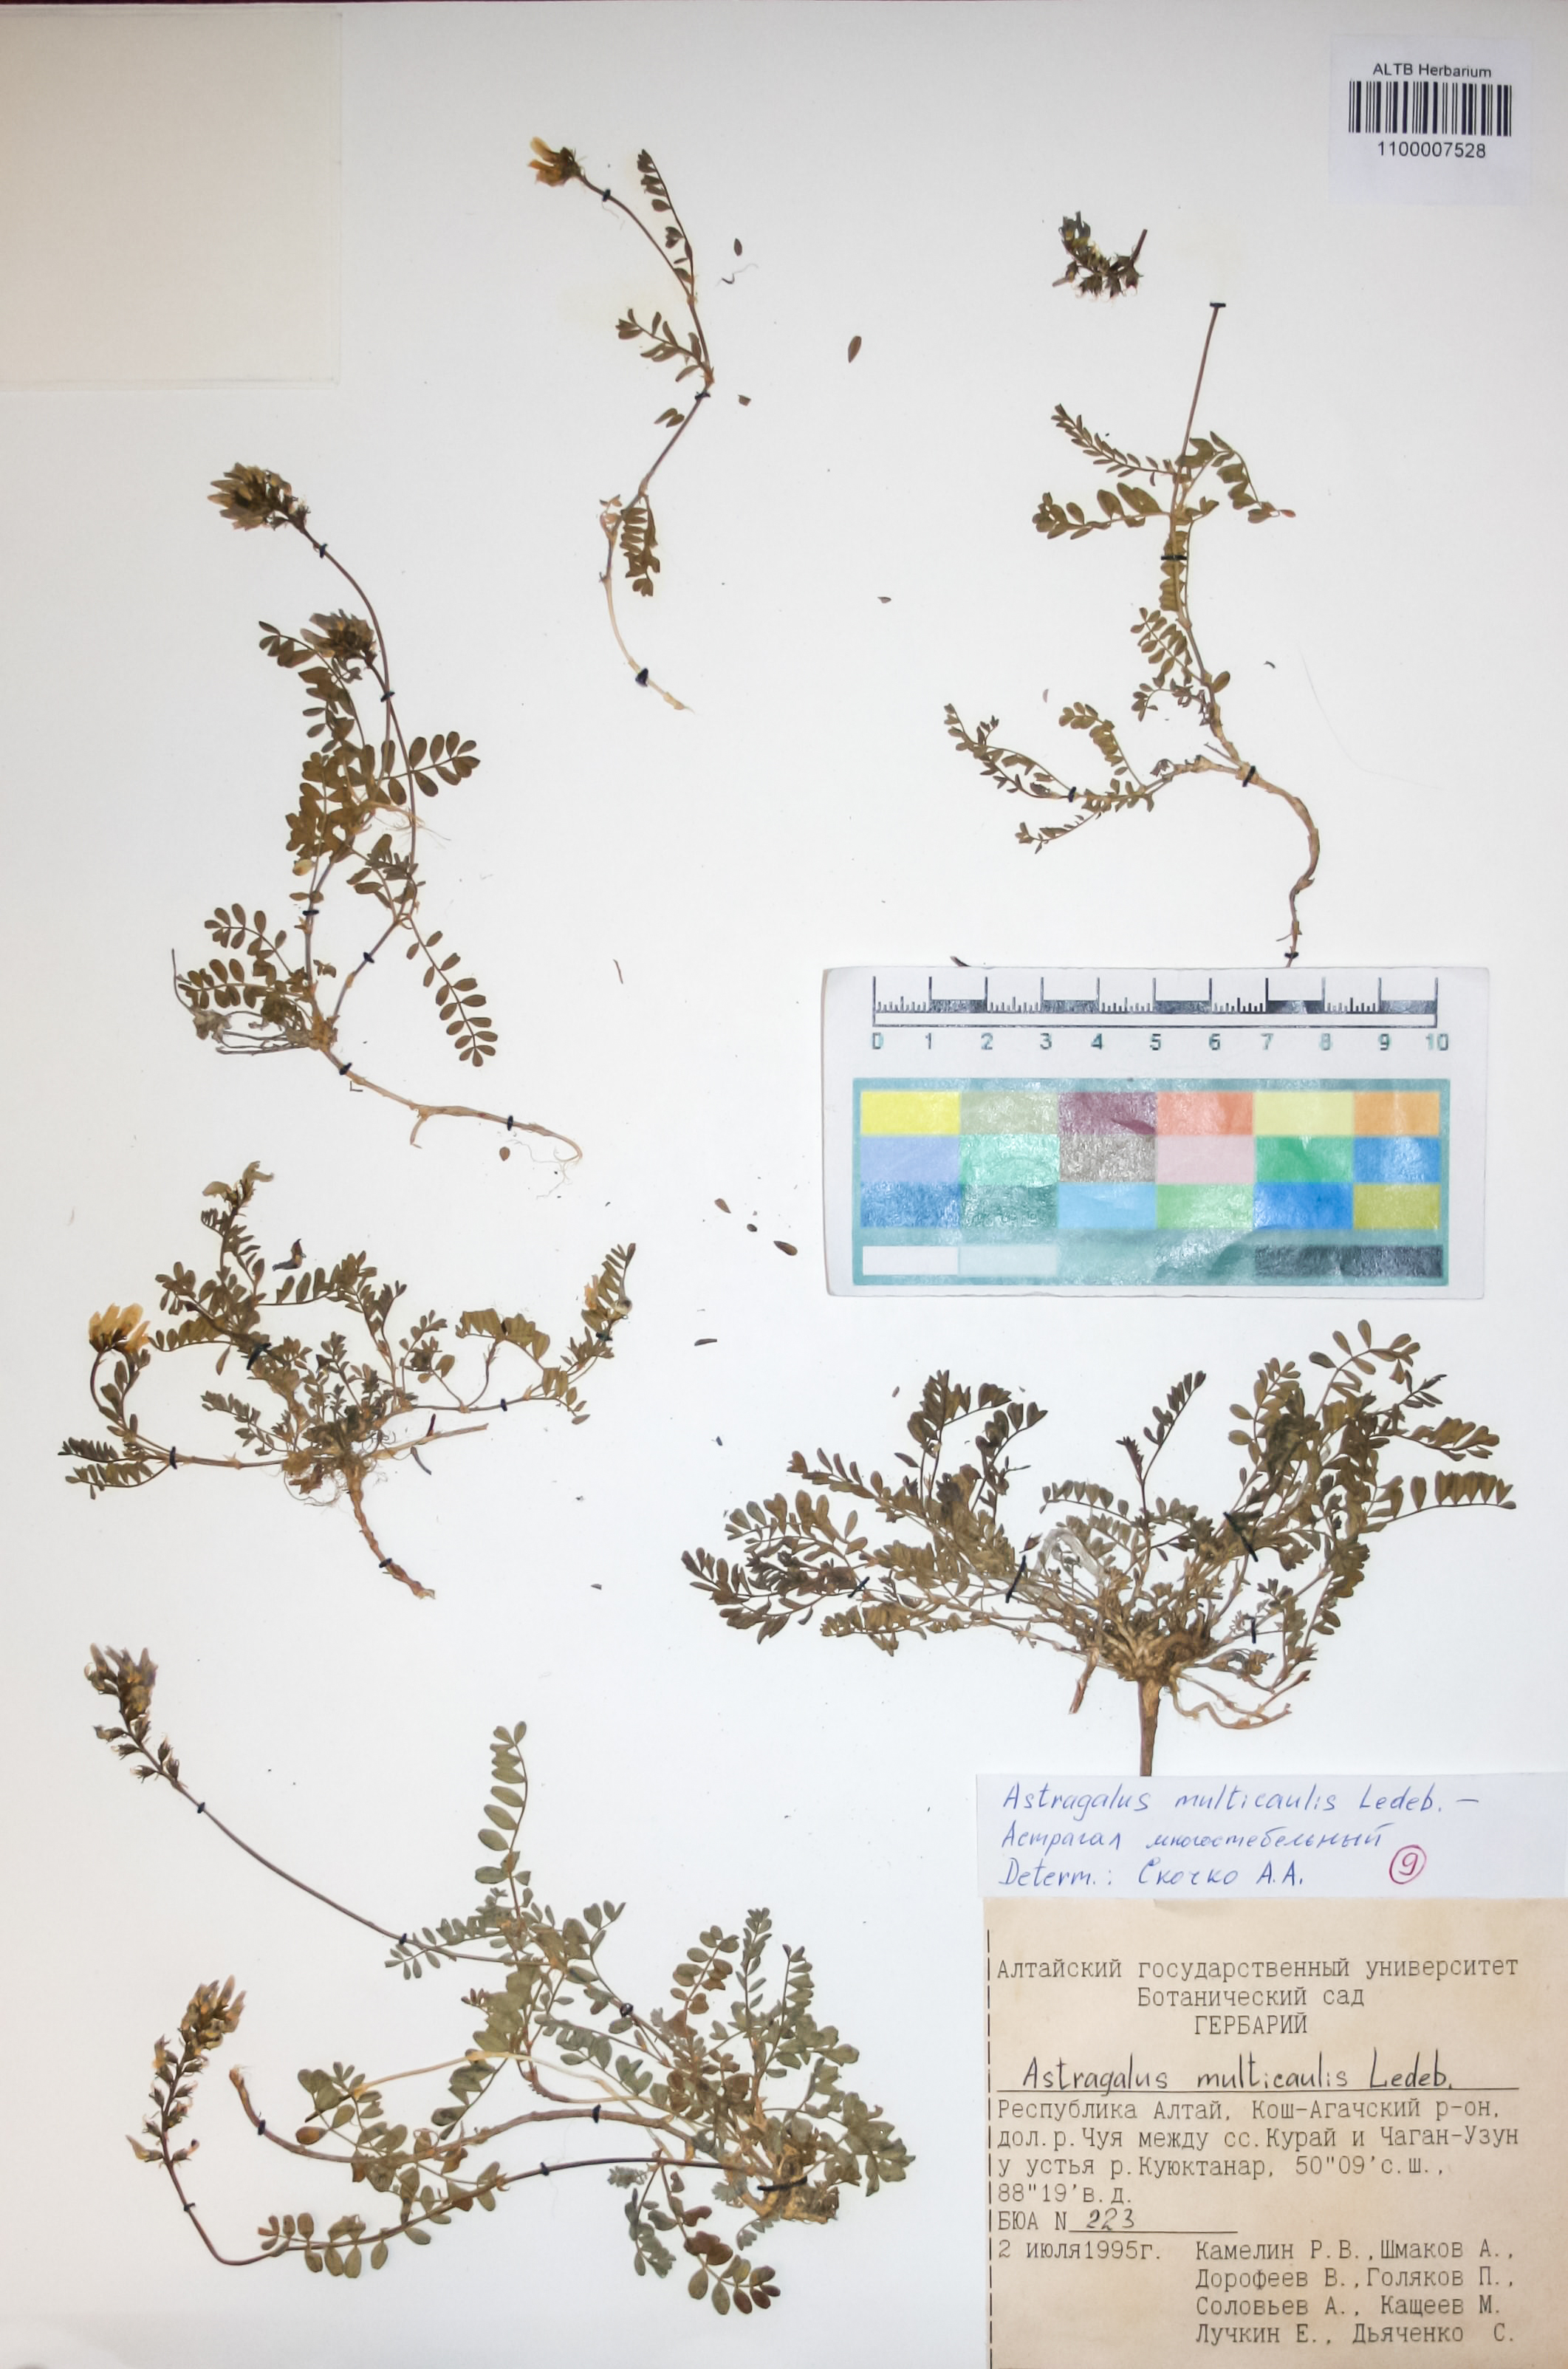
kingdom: Plantae
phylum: Tracheophyta
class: Magnoliopsida
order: Fabales
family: Fabaceae
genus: Astragalus
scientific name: Astragalus leptostachys
